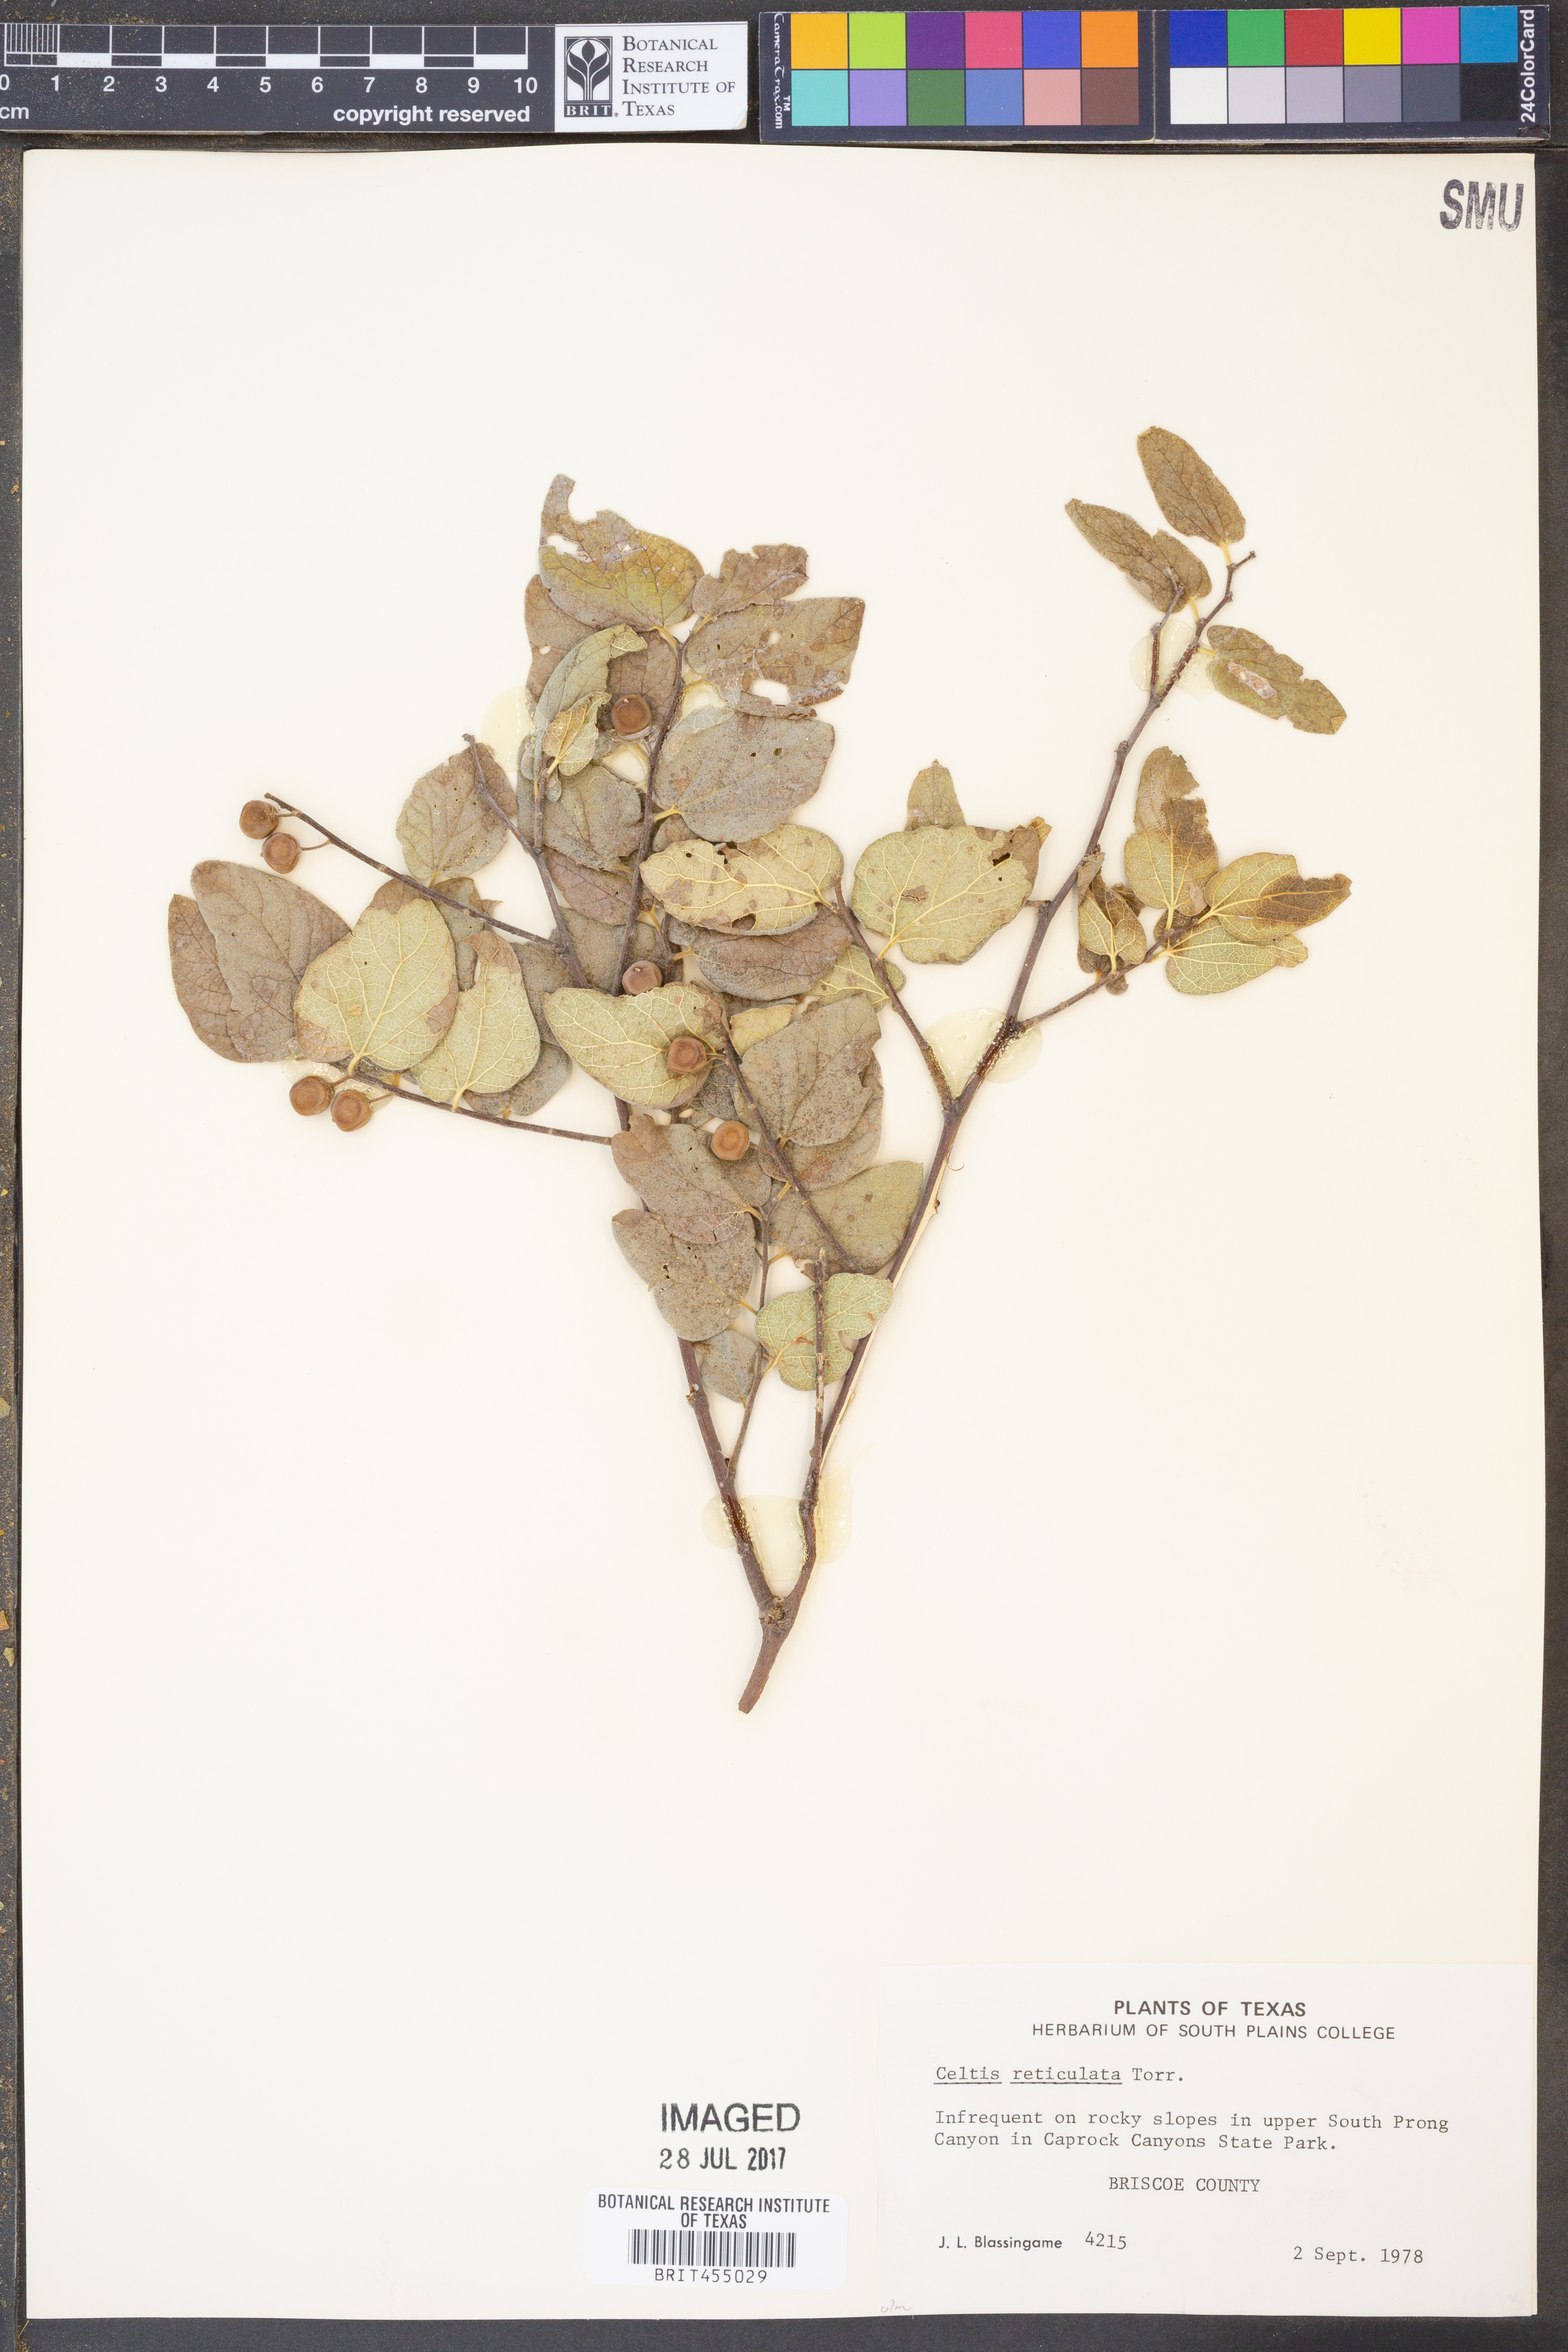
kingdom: Plantae
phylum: Tracheophyta
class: Magnoliopsida
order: Rosales
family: Cannabaceae
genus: Celtis
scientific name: Celtis reticulata
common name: Netleaf hackberry
